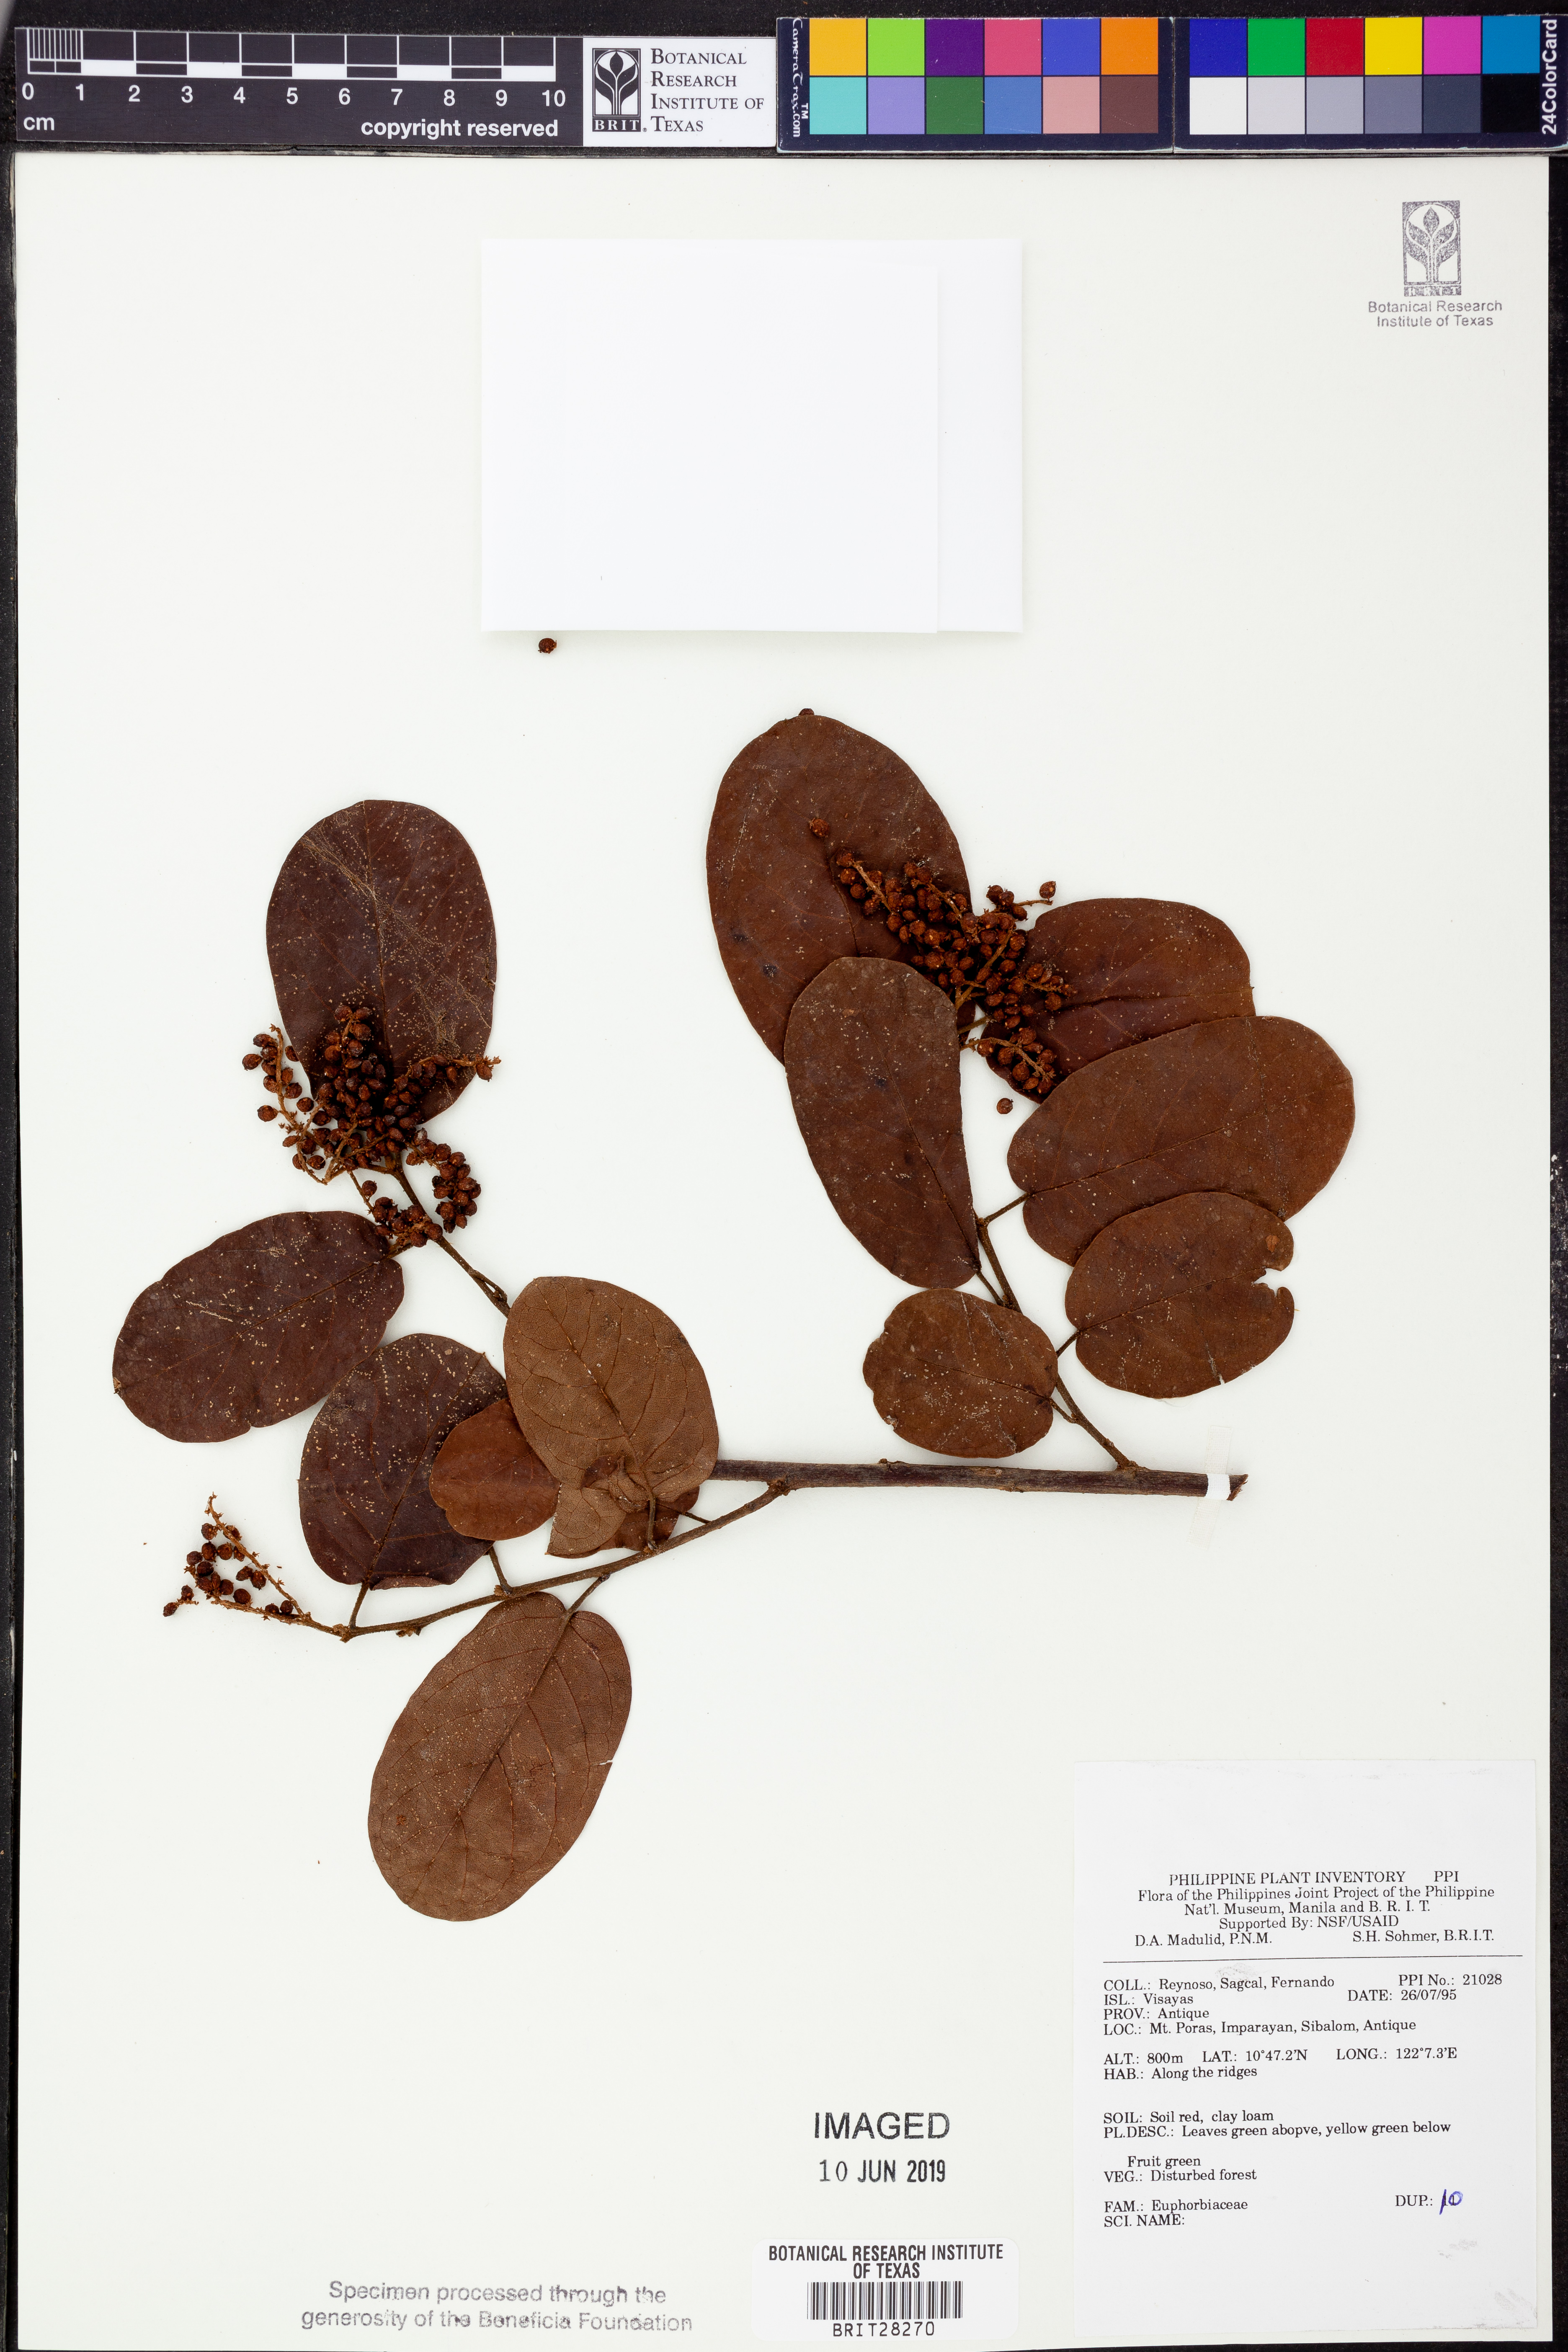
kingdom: Plantae
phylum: Tracheophyta
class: Magnoliopsida
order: Malpighiales
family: Euphorbiaceae
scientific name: Euphorbiaceae
